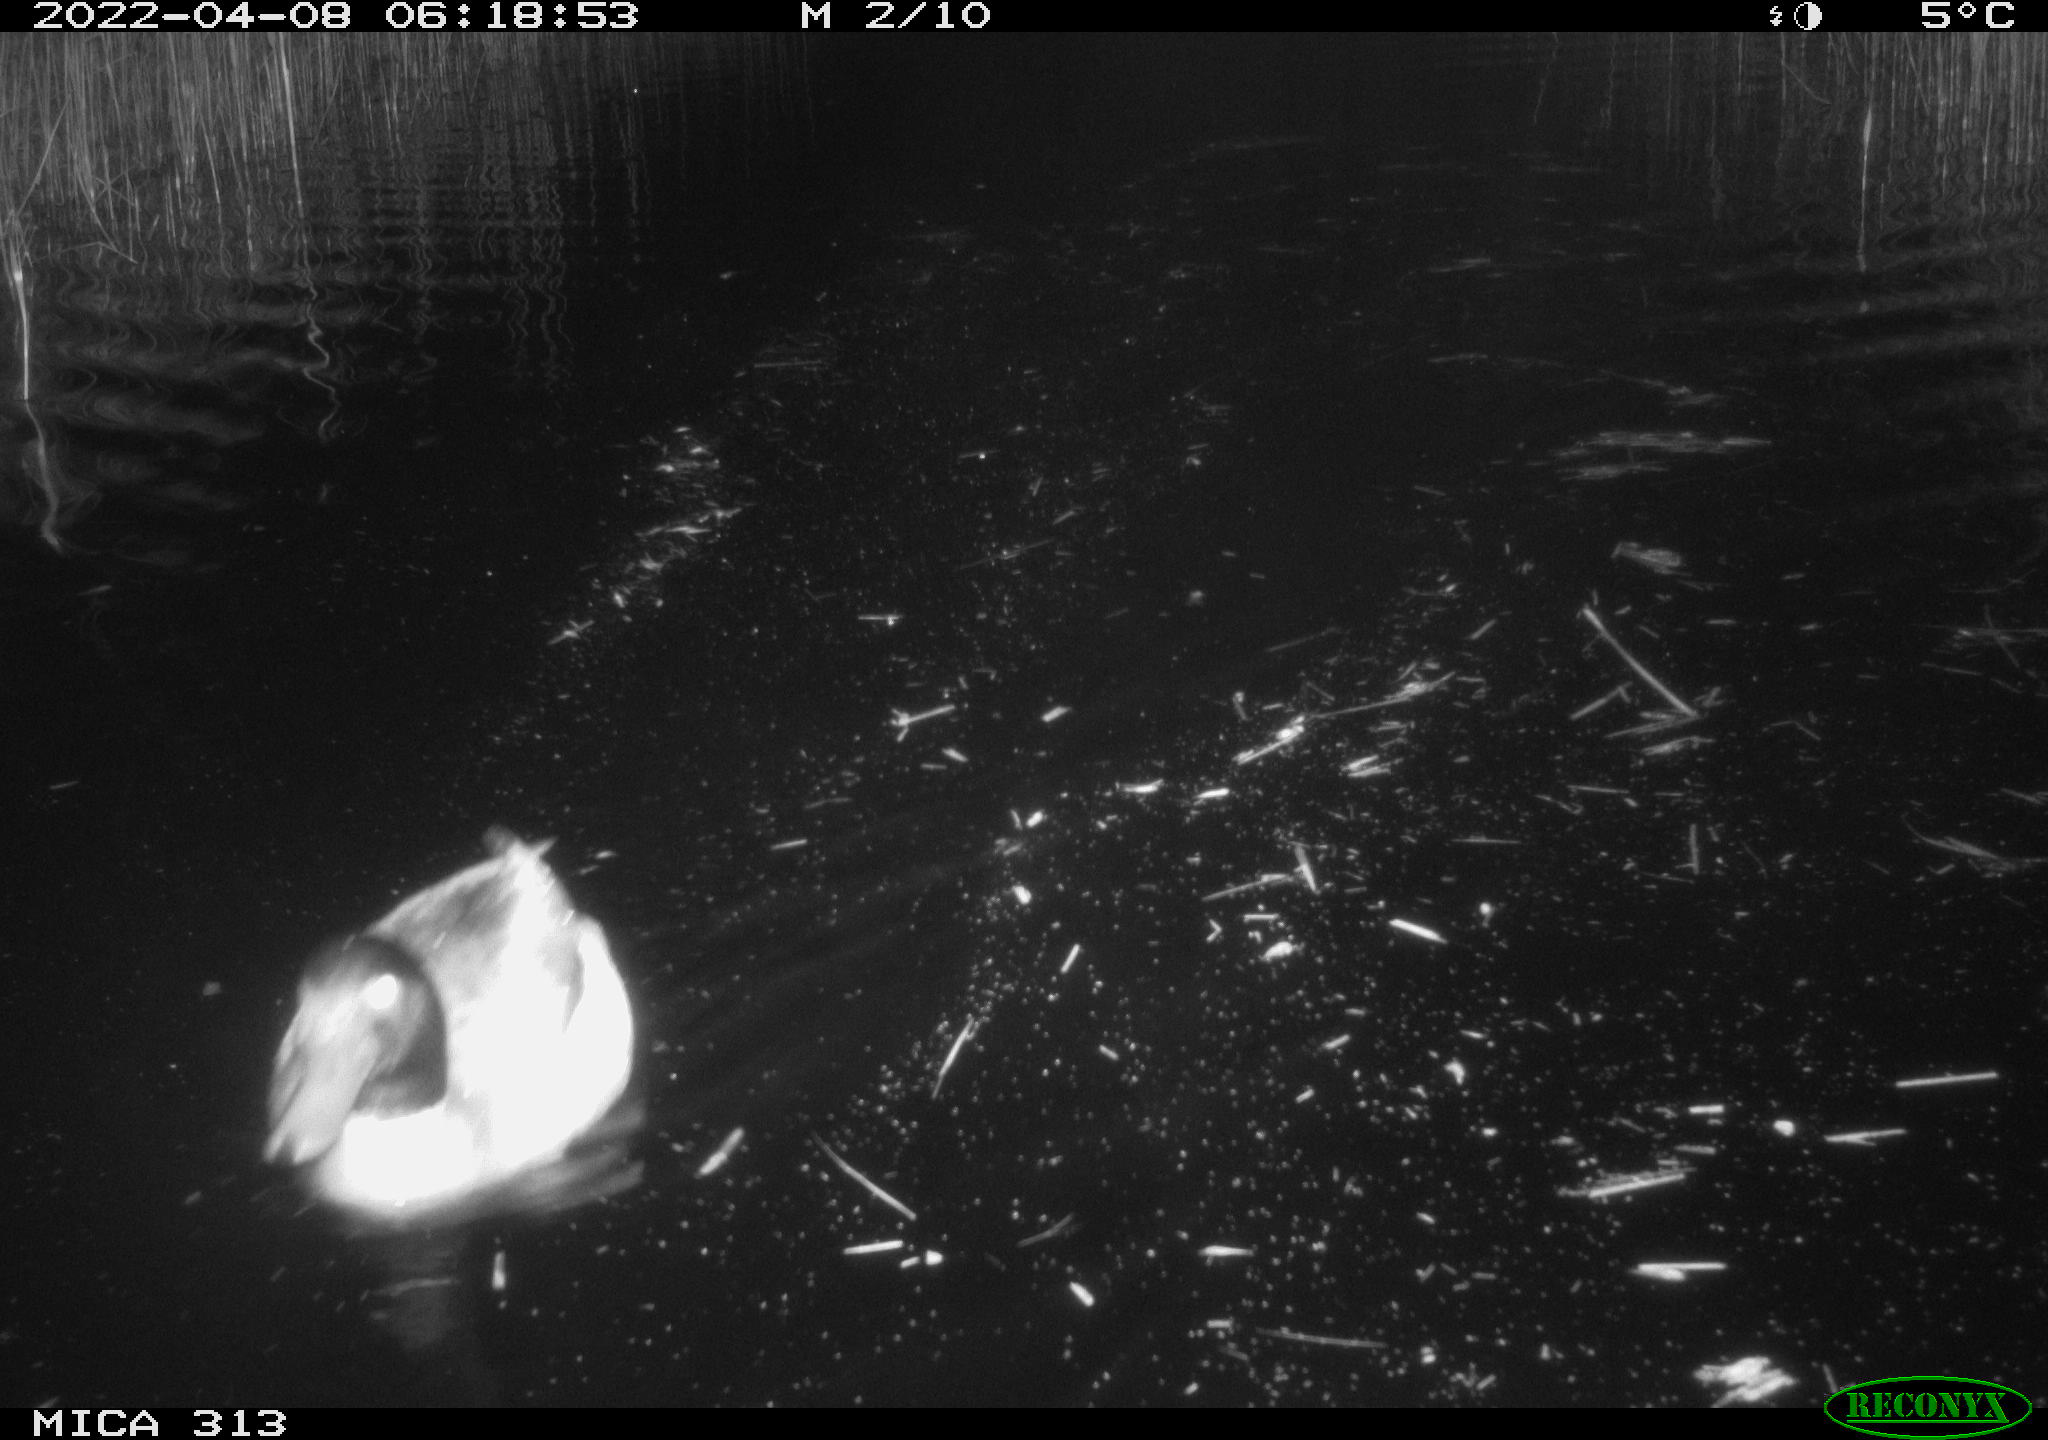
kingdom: Animalia
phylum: Chordata
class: Aves
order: Anseriformes
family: Anatidae
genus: Anas
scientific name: Anas platyrhynchos
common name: Mallard
